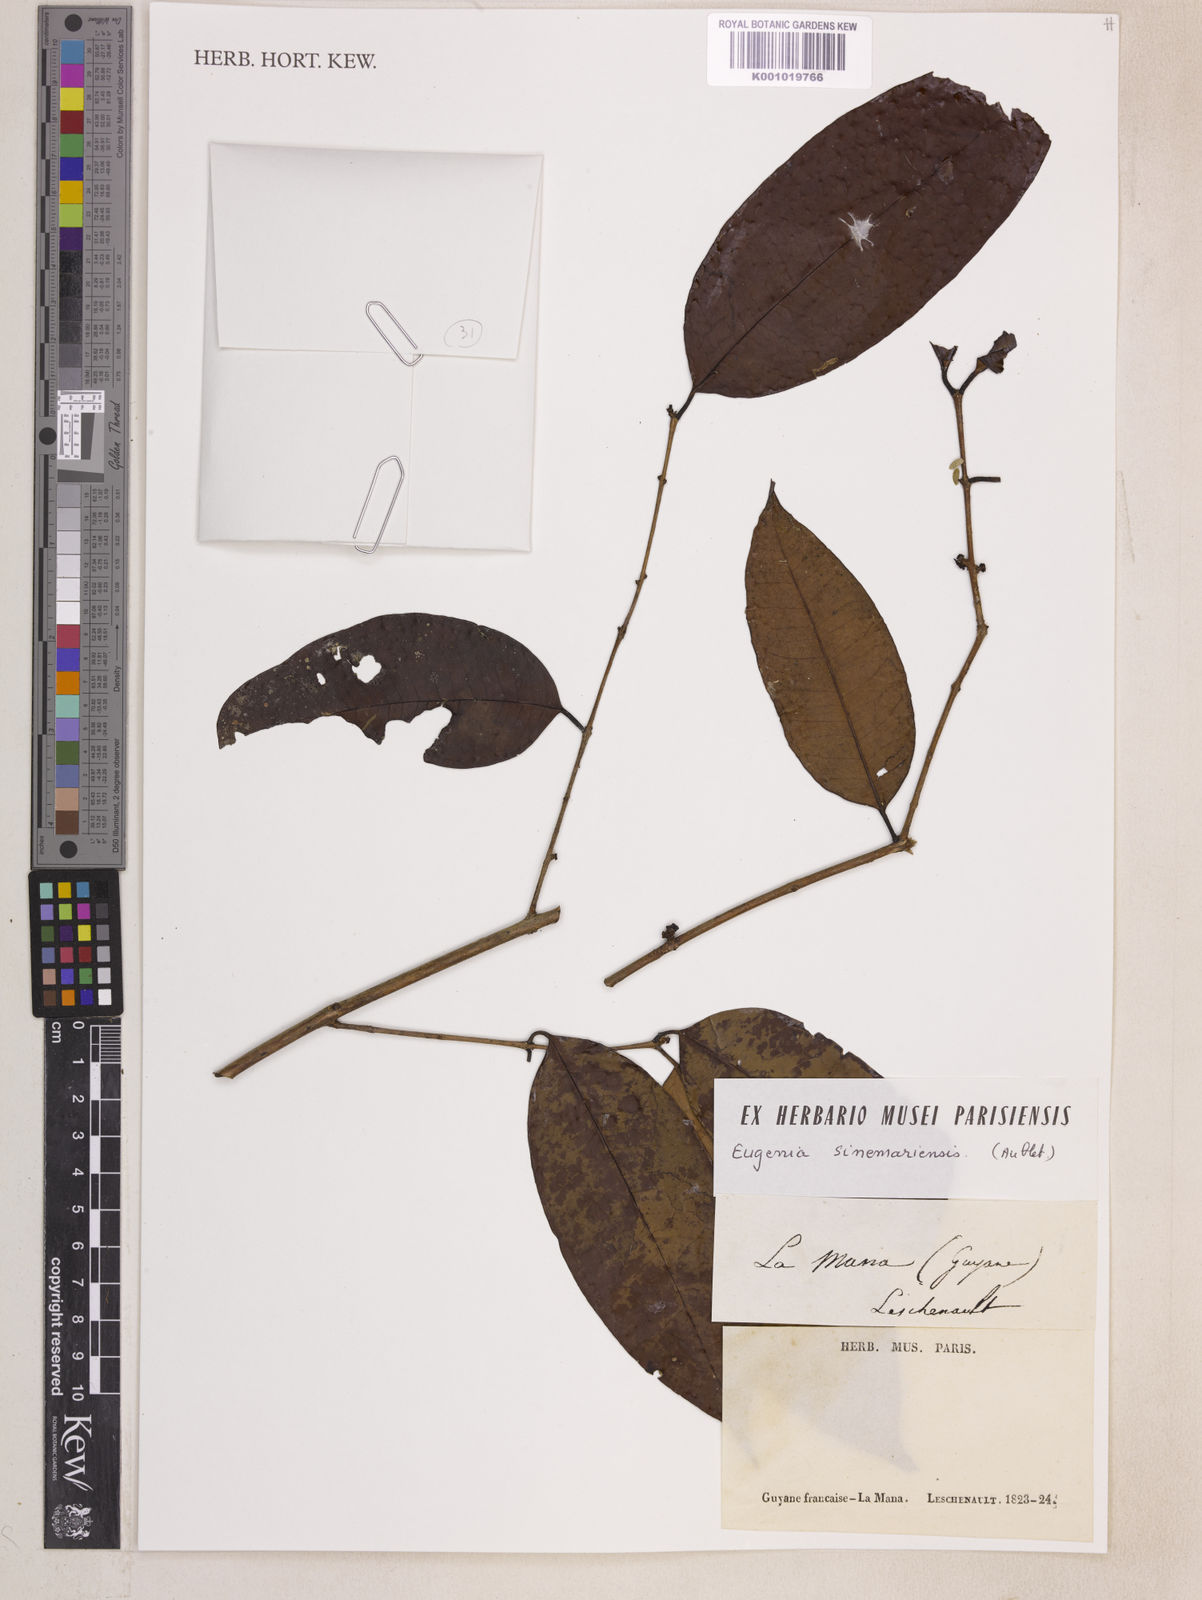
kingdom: Plantae
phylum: Tracheophyta
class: Magnoliopsida
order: Myrtales
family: Myrtaceae
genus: Eugenia
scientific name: Eugenia coffeifolia
